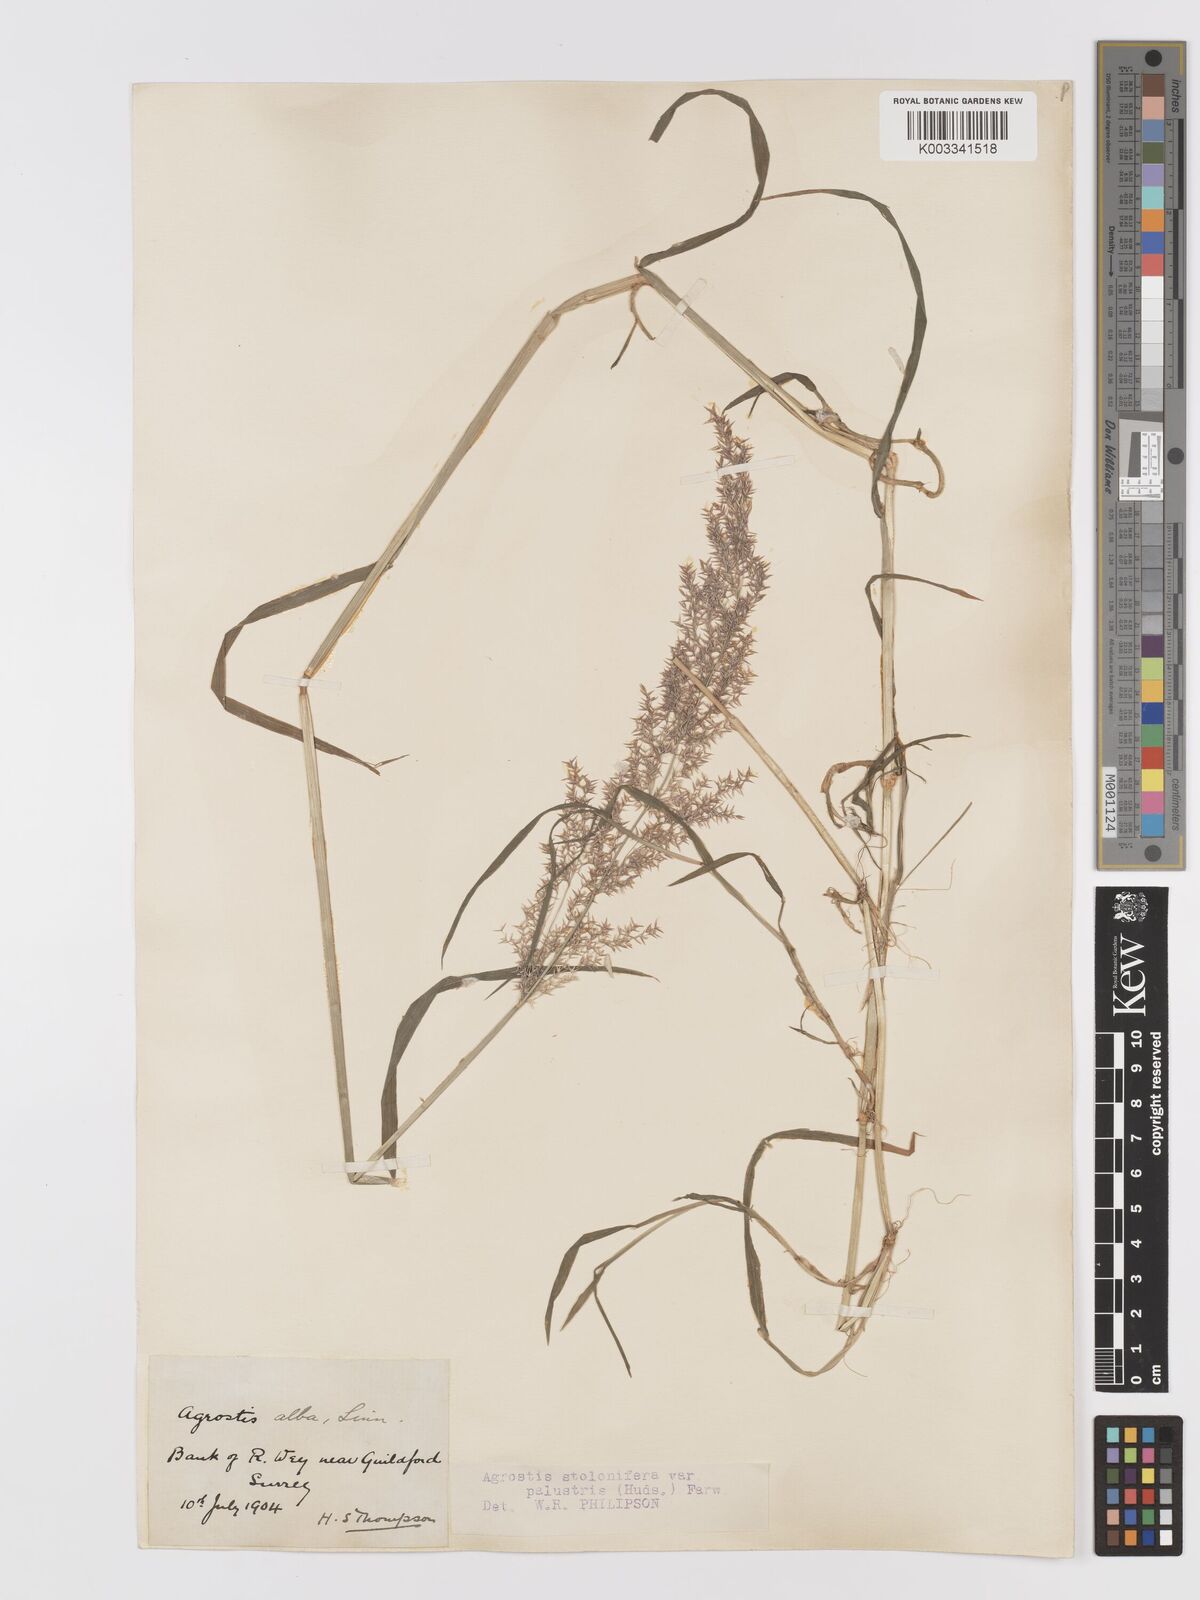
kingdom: Plantae
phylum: Tracheophyta
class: Liliopsida
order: Poales
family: Poaceae
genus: Agrostis
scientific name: Agrostis stolonifera
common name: Creeping bentgrass
